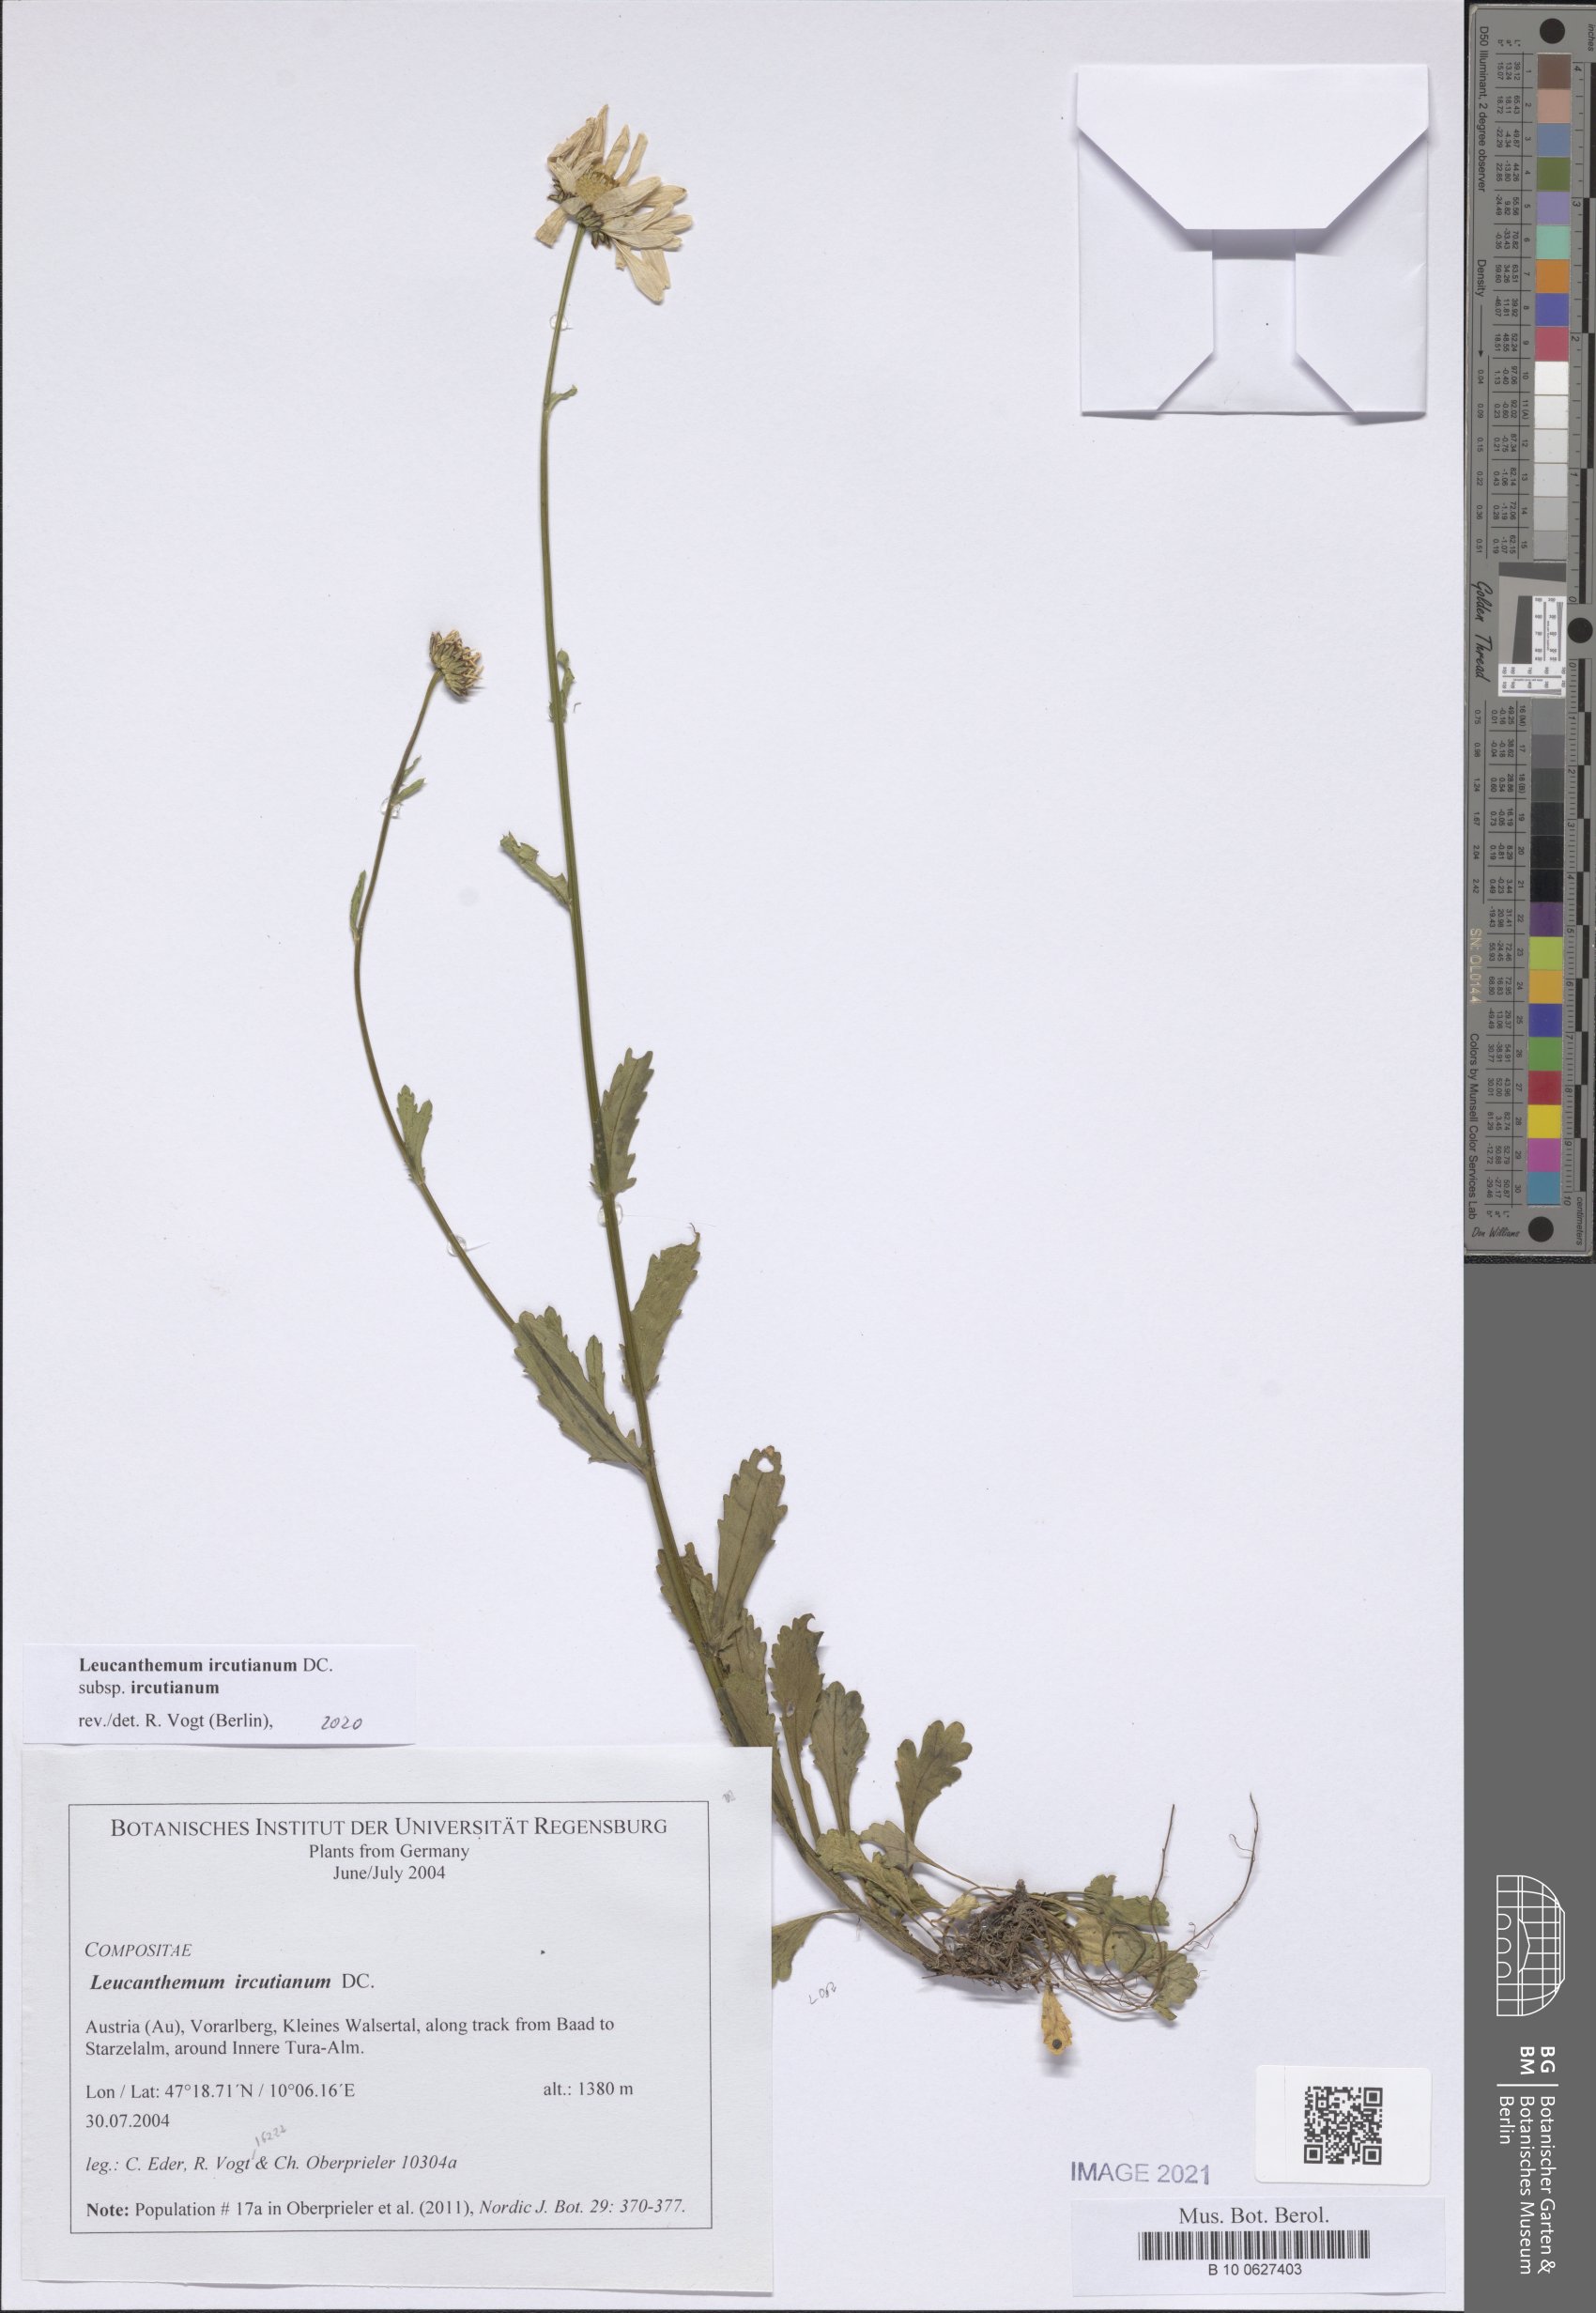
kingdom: Plantae
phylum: Tracheophyta
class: Magnoliopsida
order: Asterales
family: Asteraceae
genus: Leucanthemum
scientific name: Leucanthemum ircutianum
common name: Daisy
